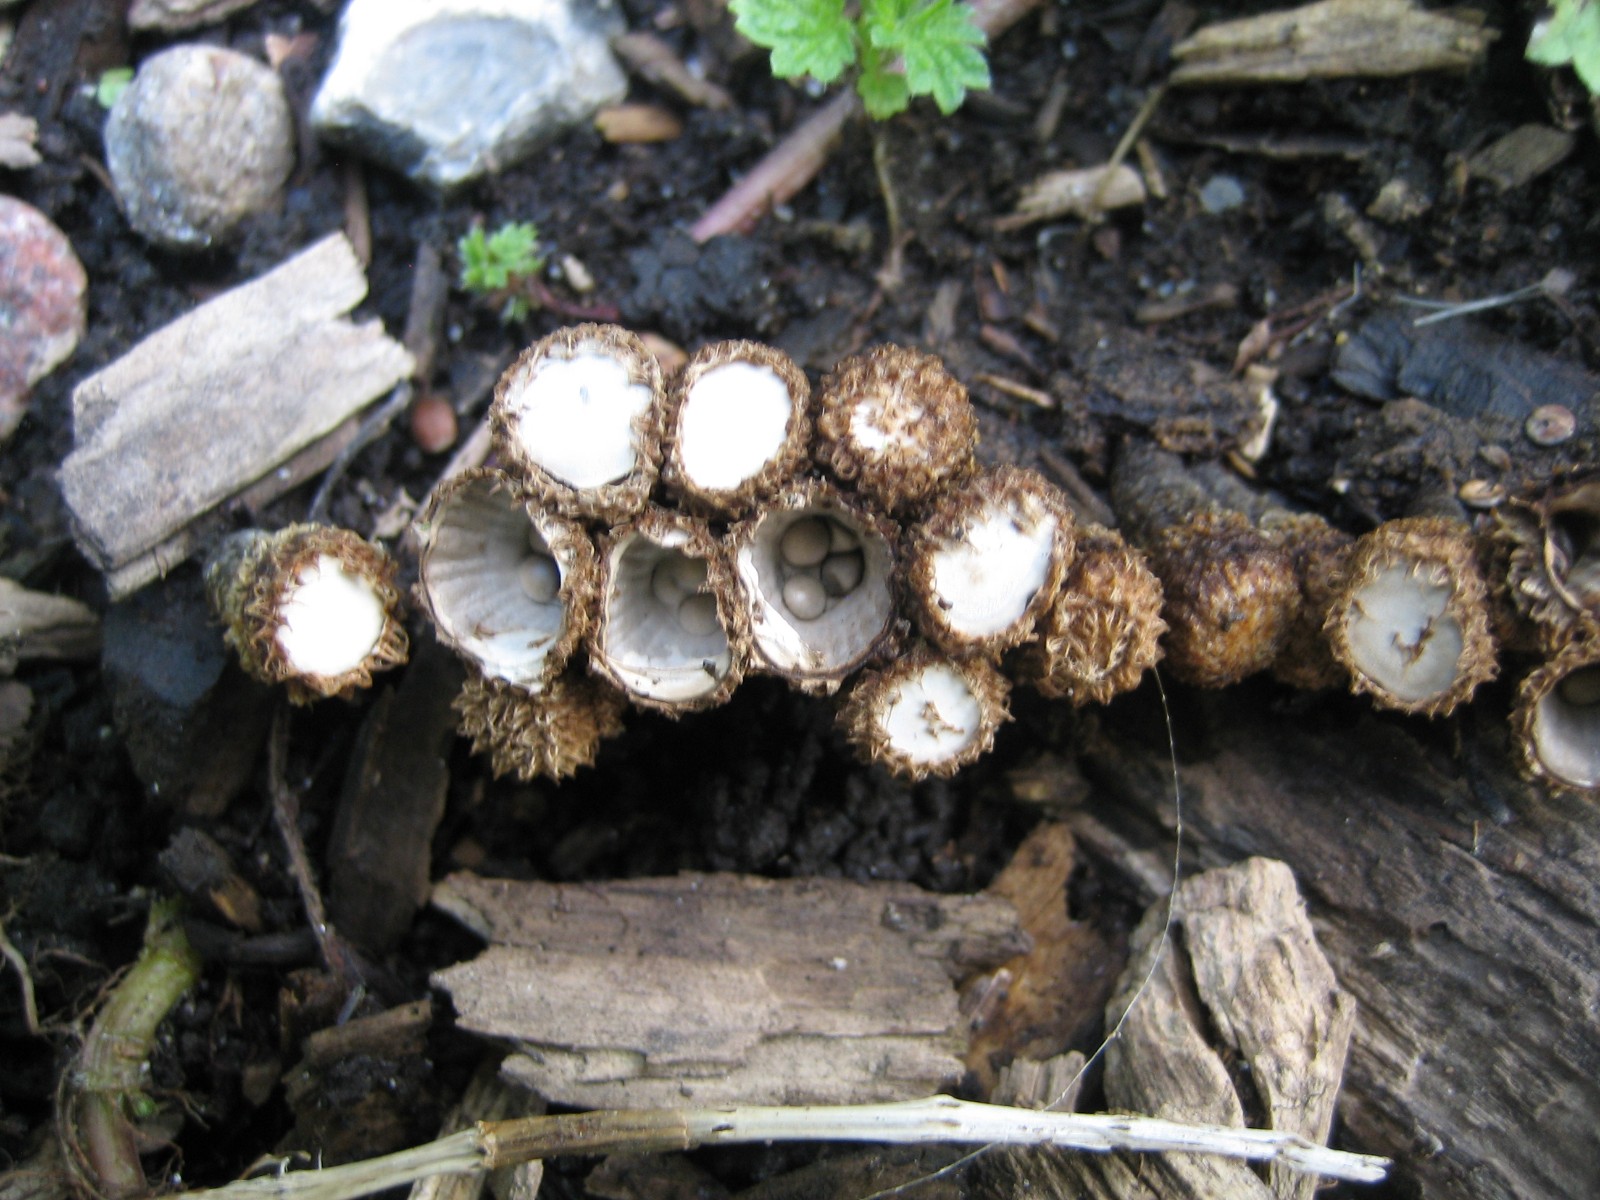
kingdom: Fungi
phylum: Basidiomycota
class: Agaricomycetes
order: Agaricales
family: Agaricaceae
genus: Cyathus
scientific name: Cyathus striatus
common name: stribet redesvamp
